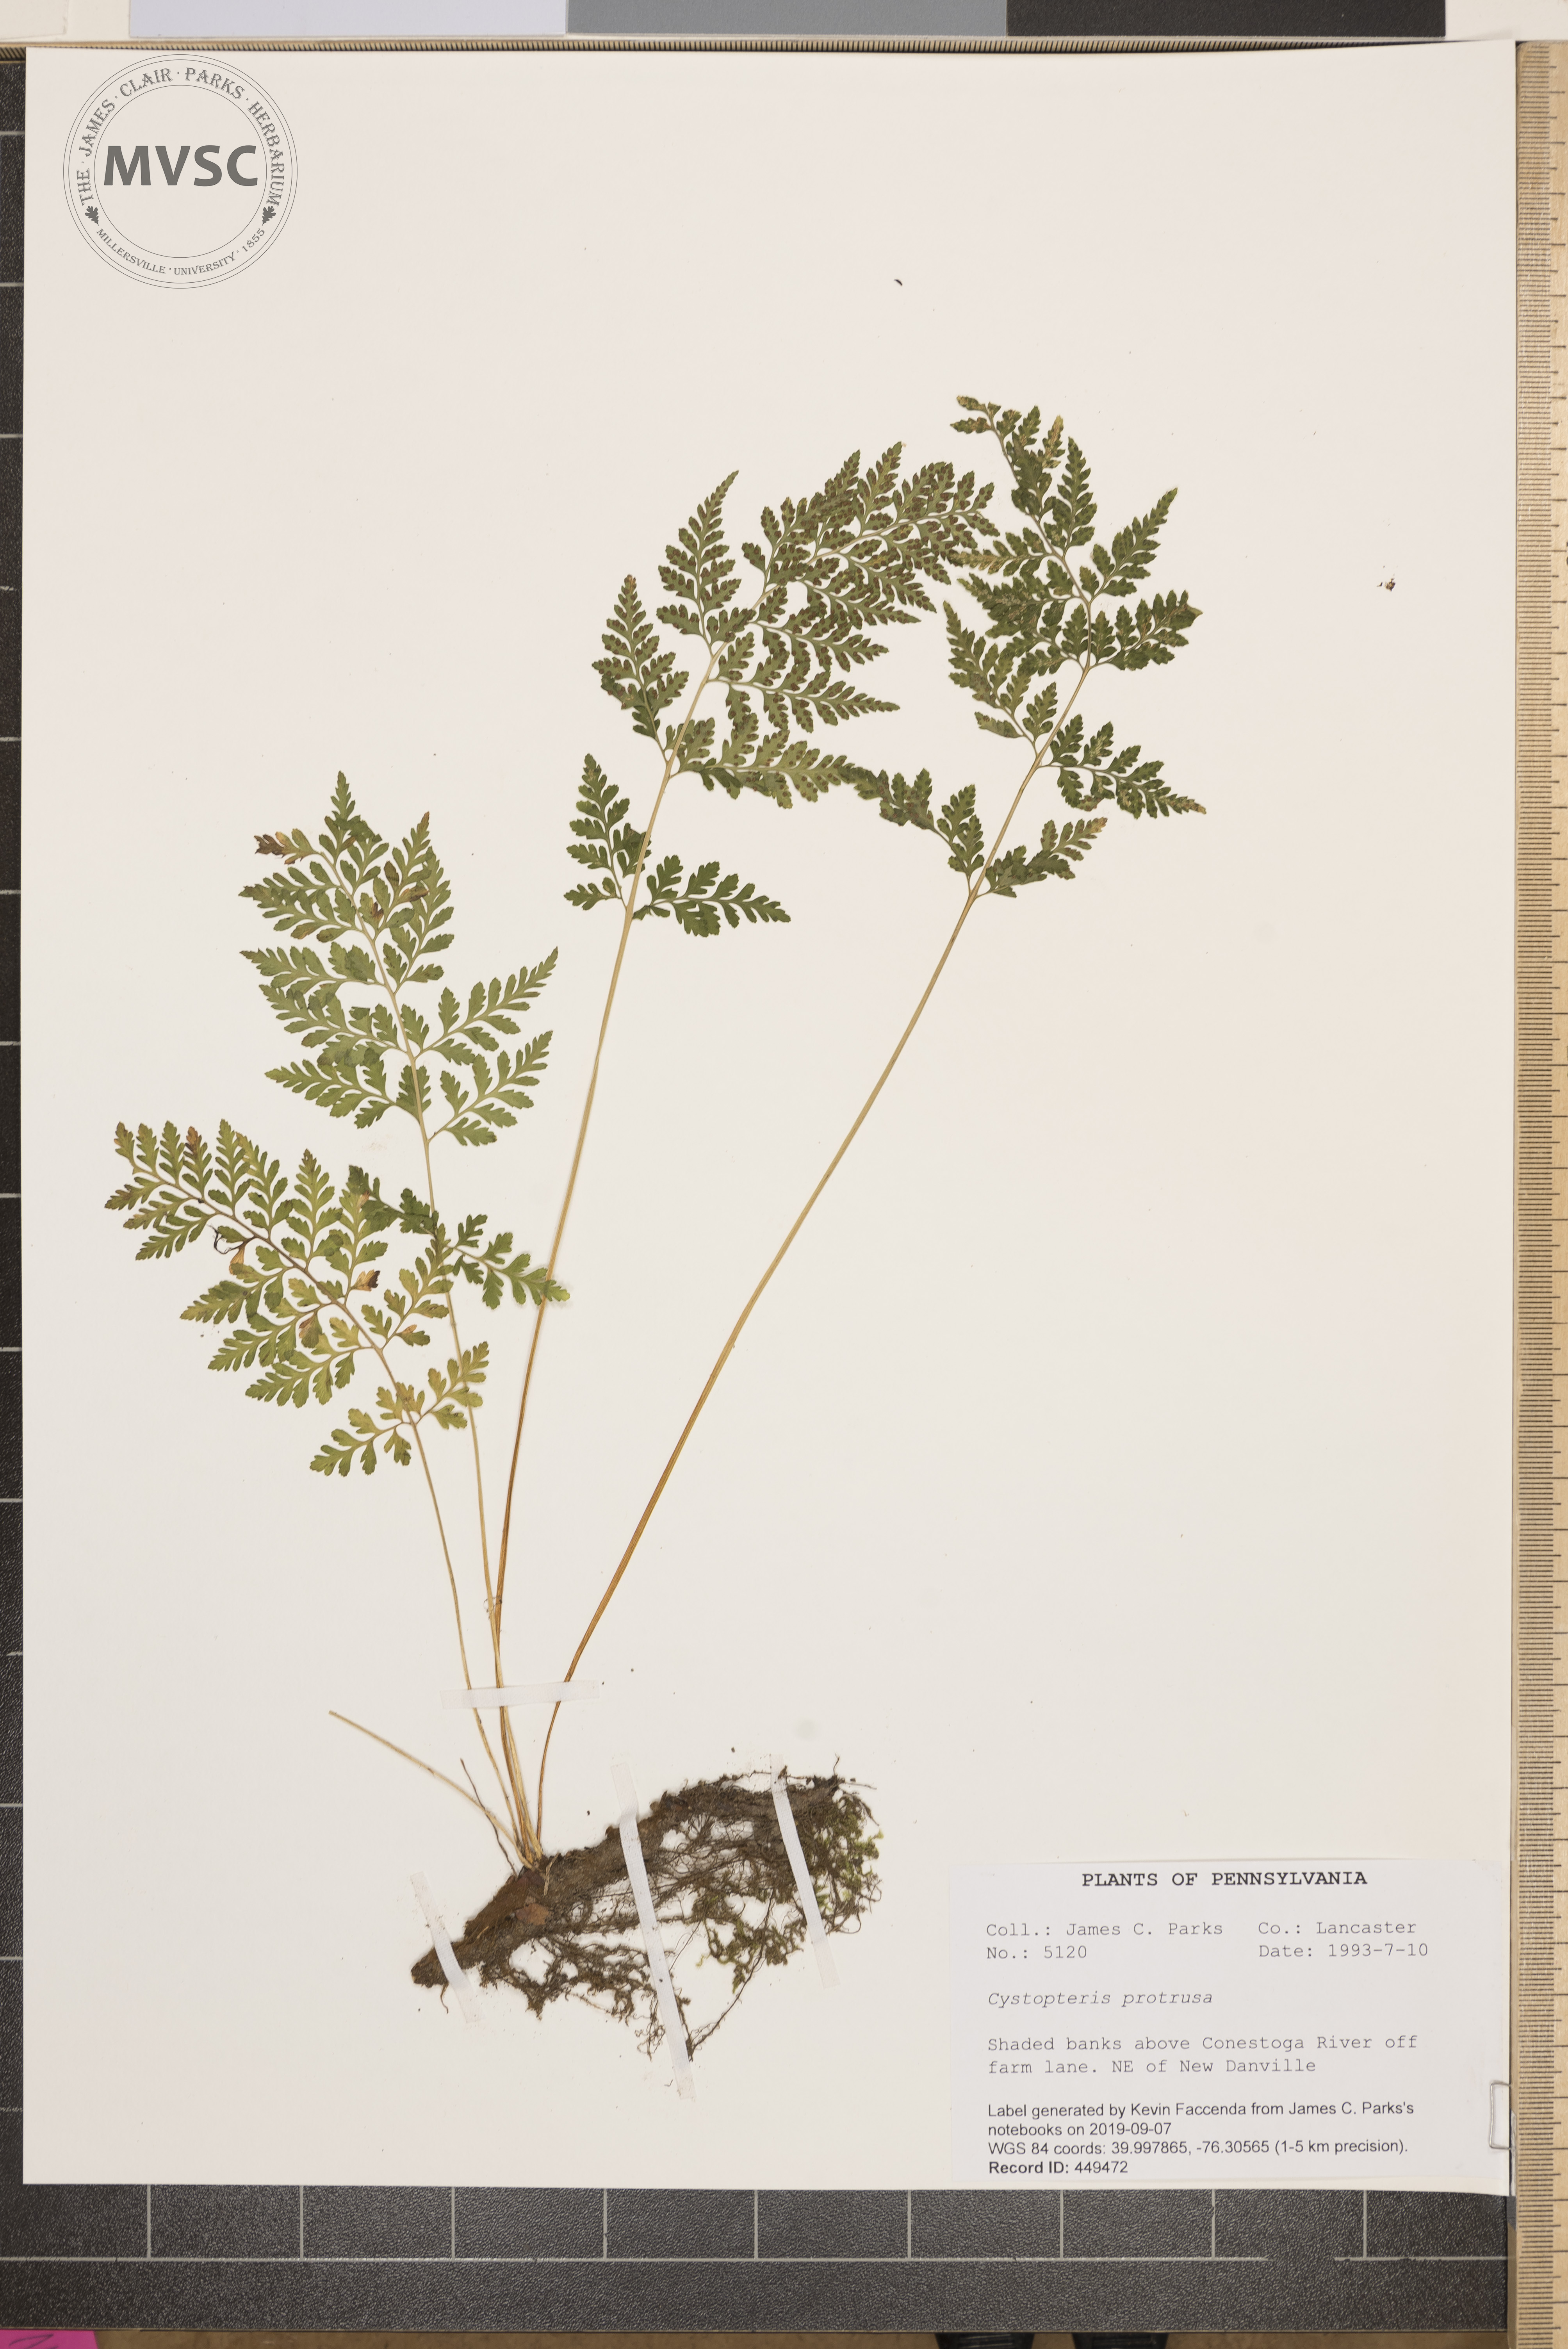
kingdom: Plantae
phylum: Tracheophyta
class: Polypodiopsida
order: Polypodiales
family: Cystopteridaceae
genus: Cystopteris
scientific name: Cystopteris protrusa
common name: Lowland brittle fern
